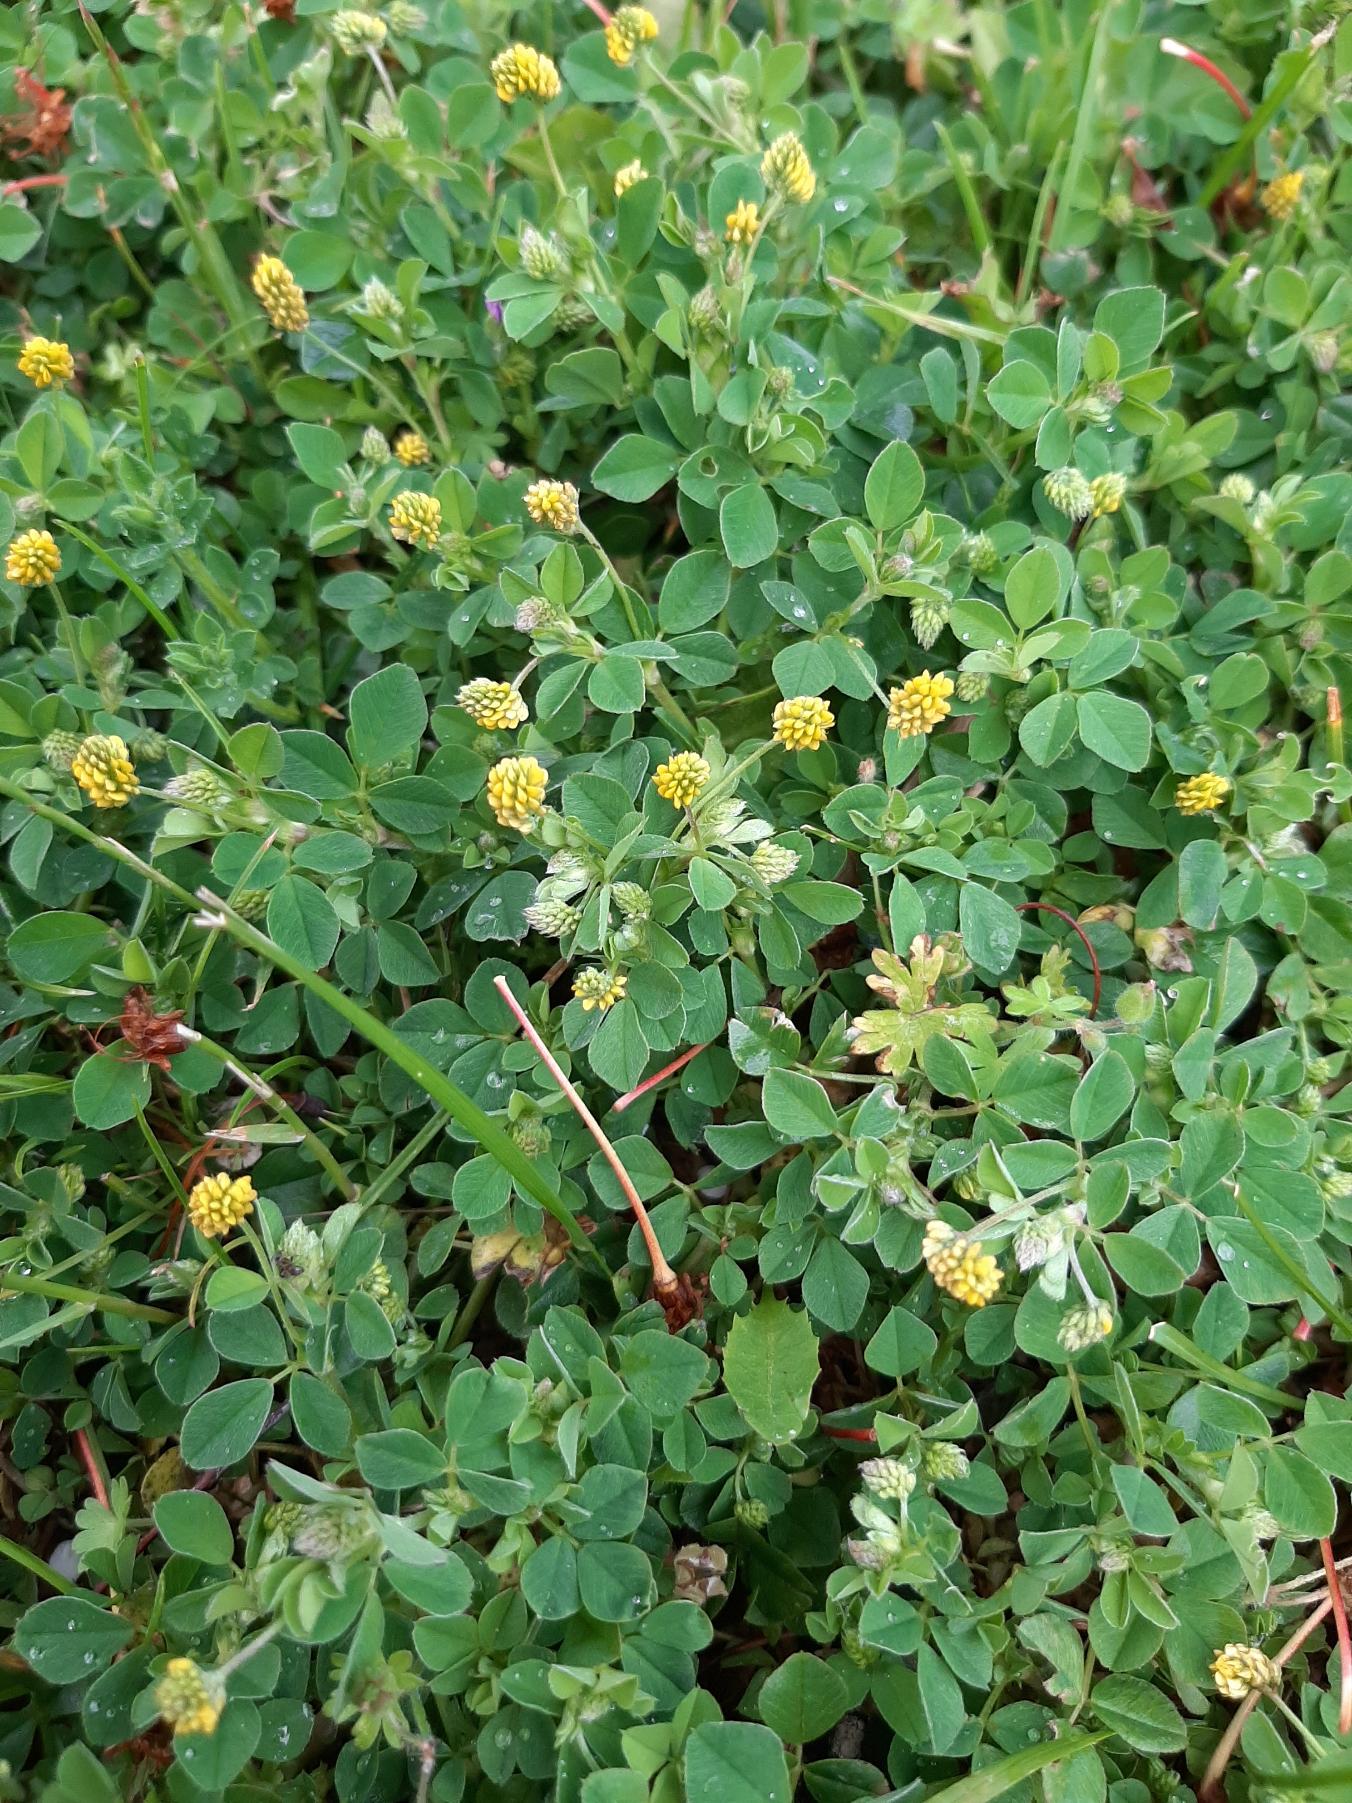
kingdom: Plantae
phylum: Tracheophyta
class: Magnoliopsida
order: Fabales
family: Fabaceae
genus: Medicago
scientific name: Medicago lupulina
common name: Humle-sneglebælg
